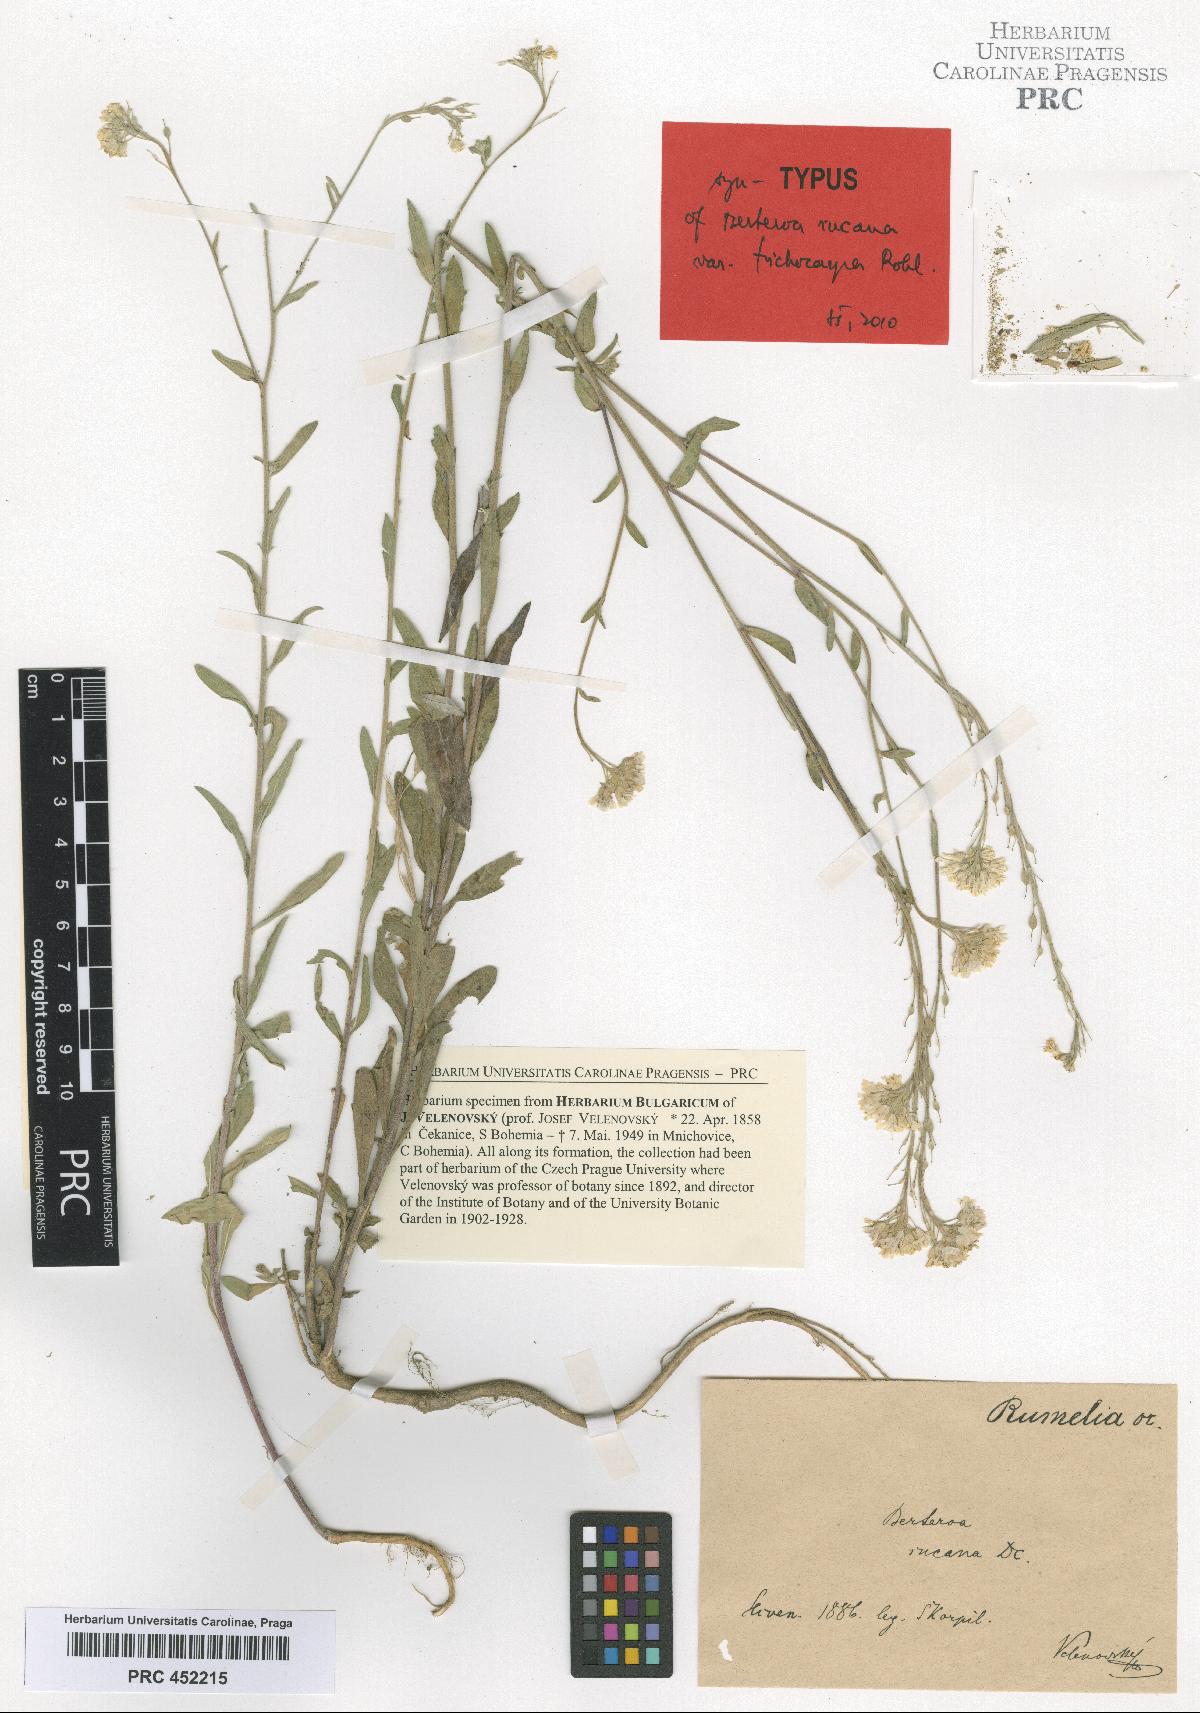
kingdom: Plantae
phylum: Tracheophyta
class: Magnoliopsida
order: Brassicales
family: Brassicaceae
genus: Berteroa
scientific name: Berteroa incana
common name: Hoary alison
